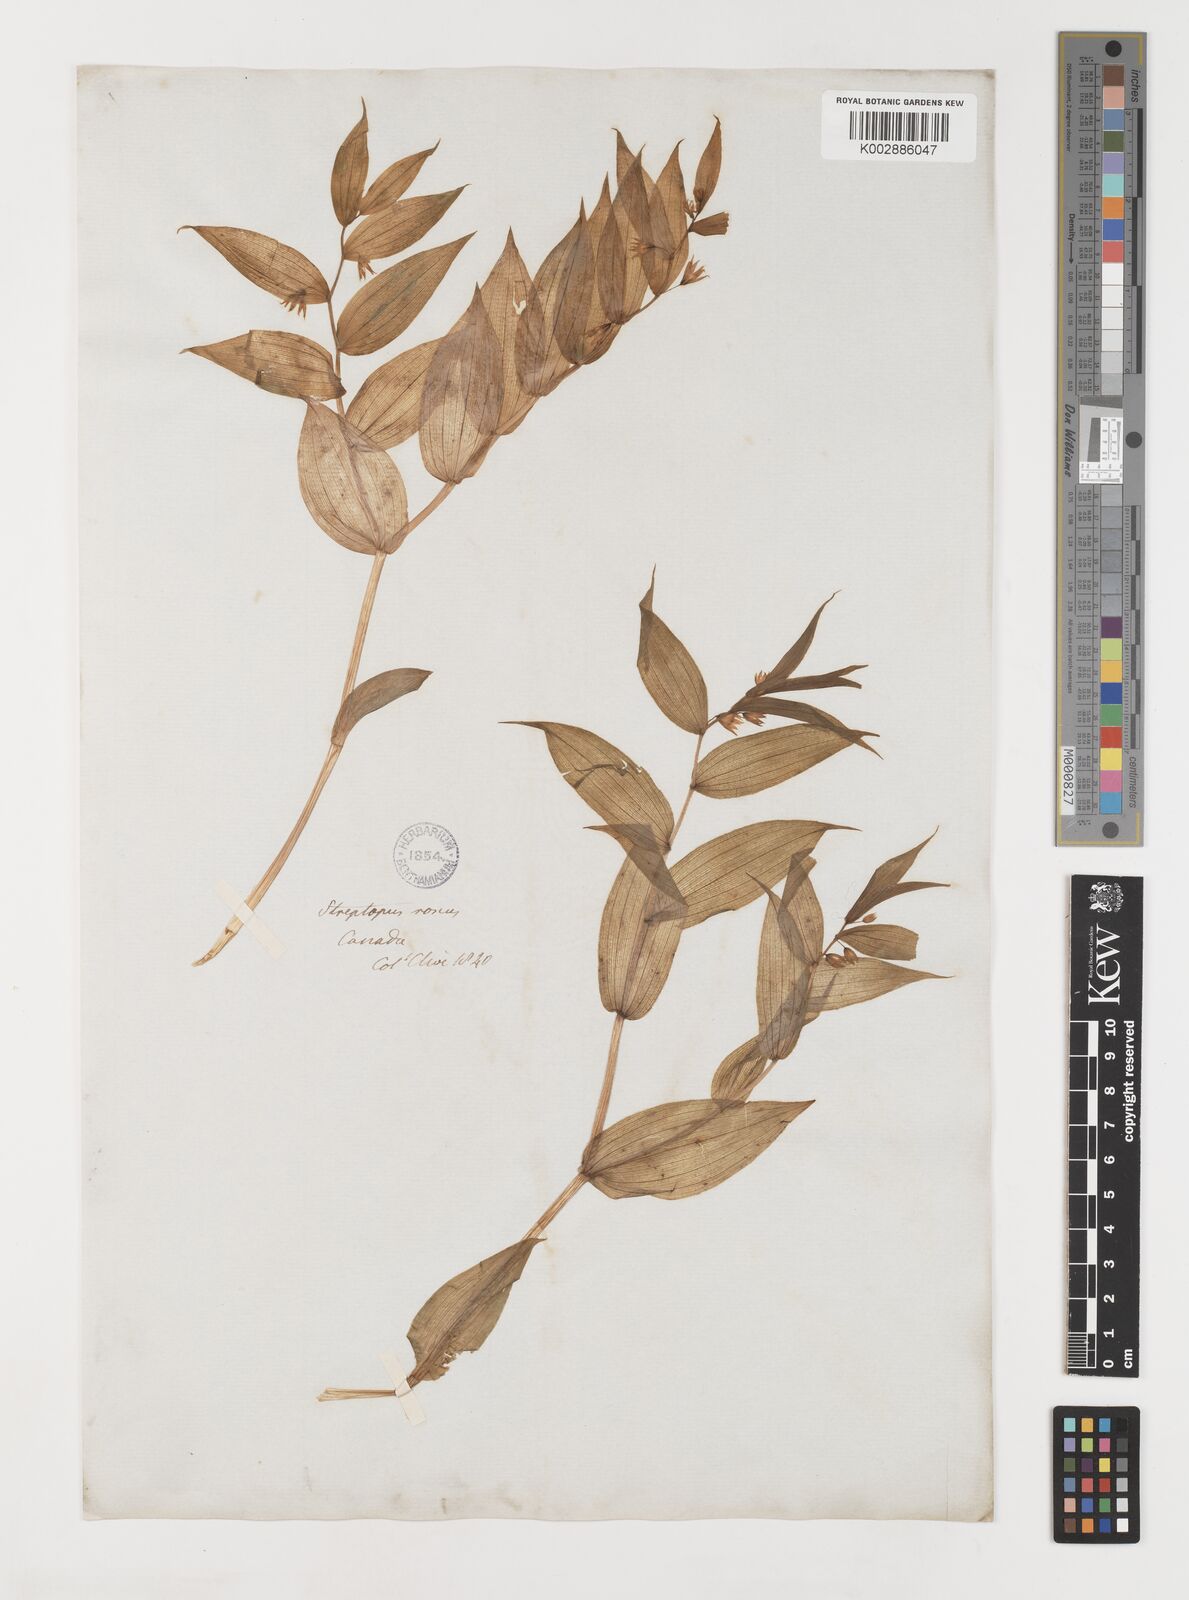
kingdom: Plantae
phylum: Tracheophyta
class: Liliopsida
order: Liliales
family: Liliaceae
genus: Streptopus
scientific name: Streptopus lanceolatus
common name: Rose mandarin
